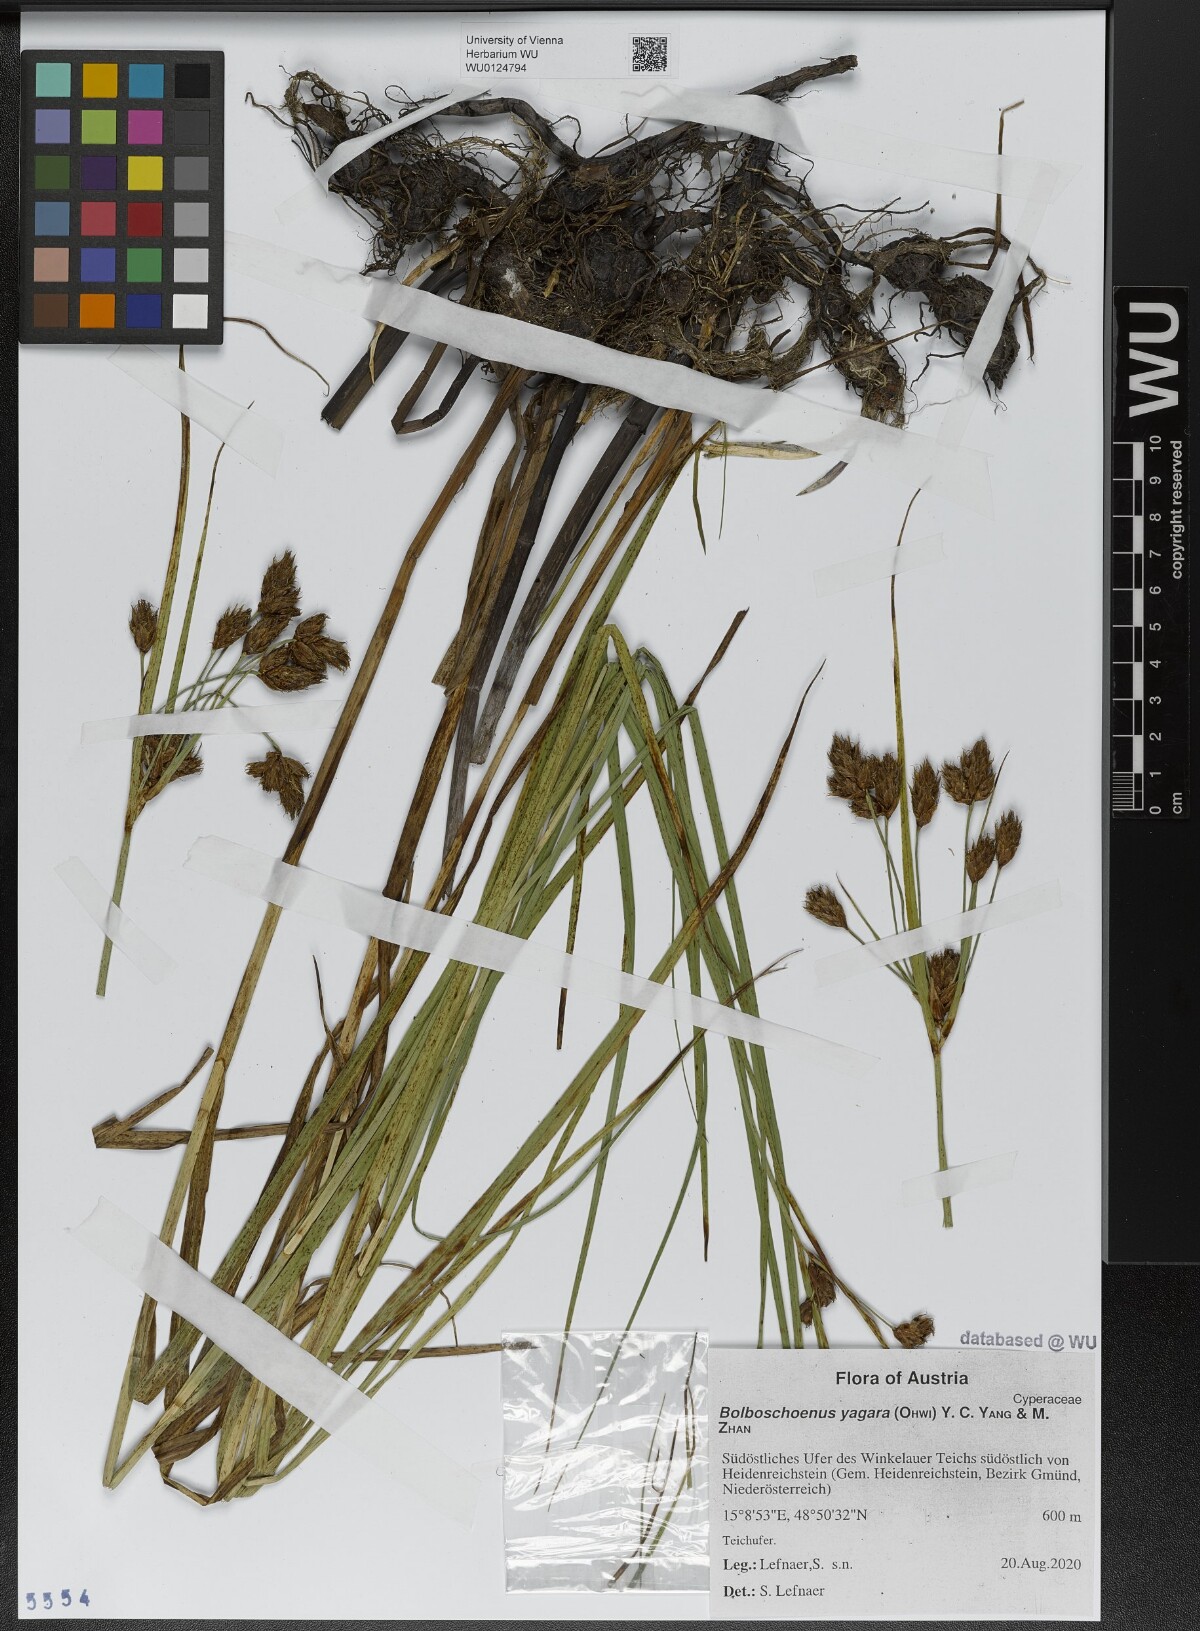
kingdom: Plantae
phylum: Tracheophyta
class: Liliopsida
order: Poales
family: Cyperaceae
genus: Bolboschoenus
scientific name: Bolboschoenus yagara
